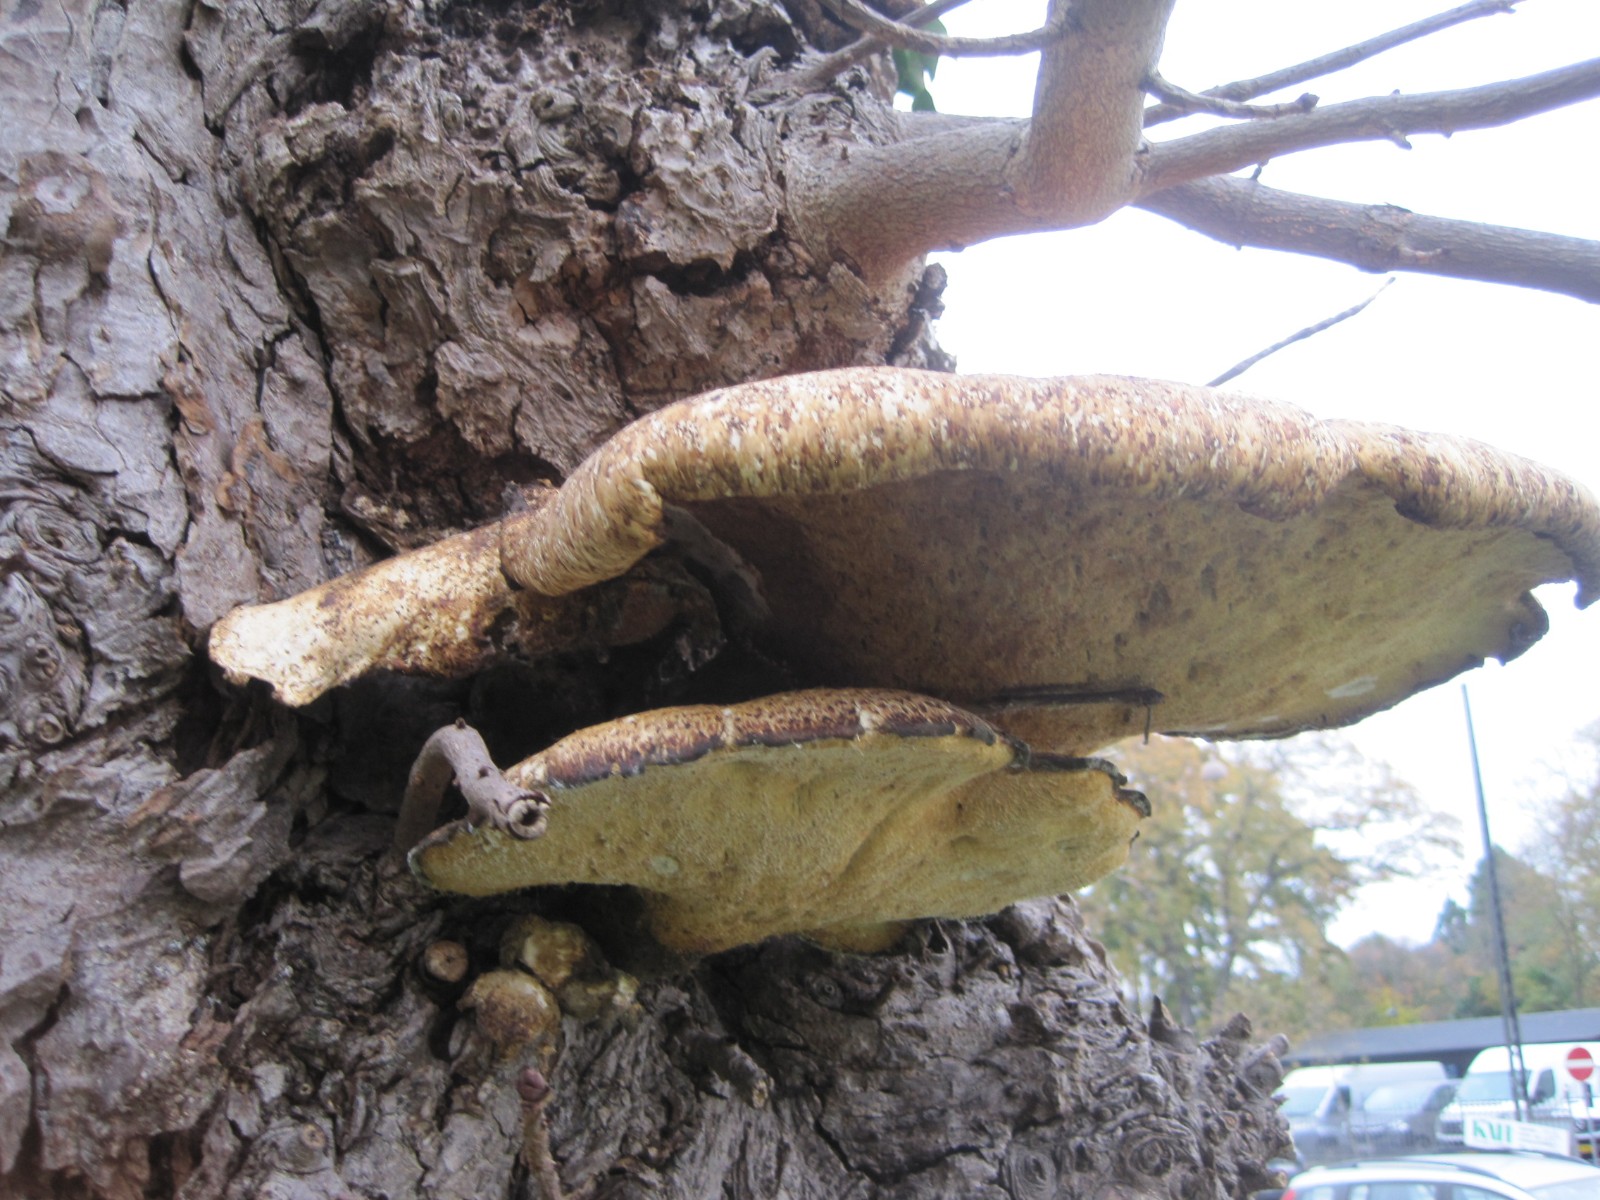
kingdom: Fungi
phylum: Basidiomycota
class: Agaricomycetes
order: Polyporales
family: Polyporaceae
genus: Cerioporus
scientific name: Cerioporus squamosus
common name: skællet stilkporesvamp
